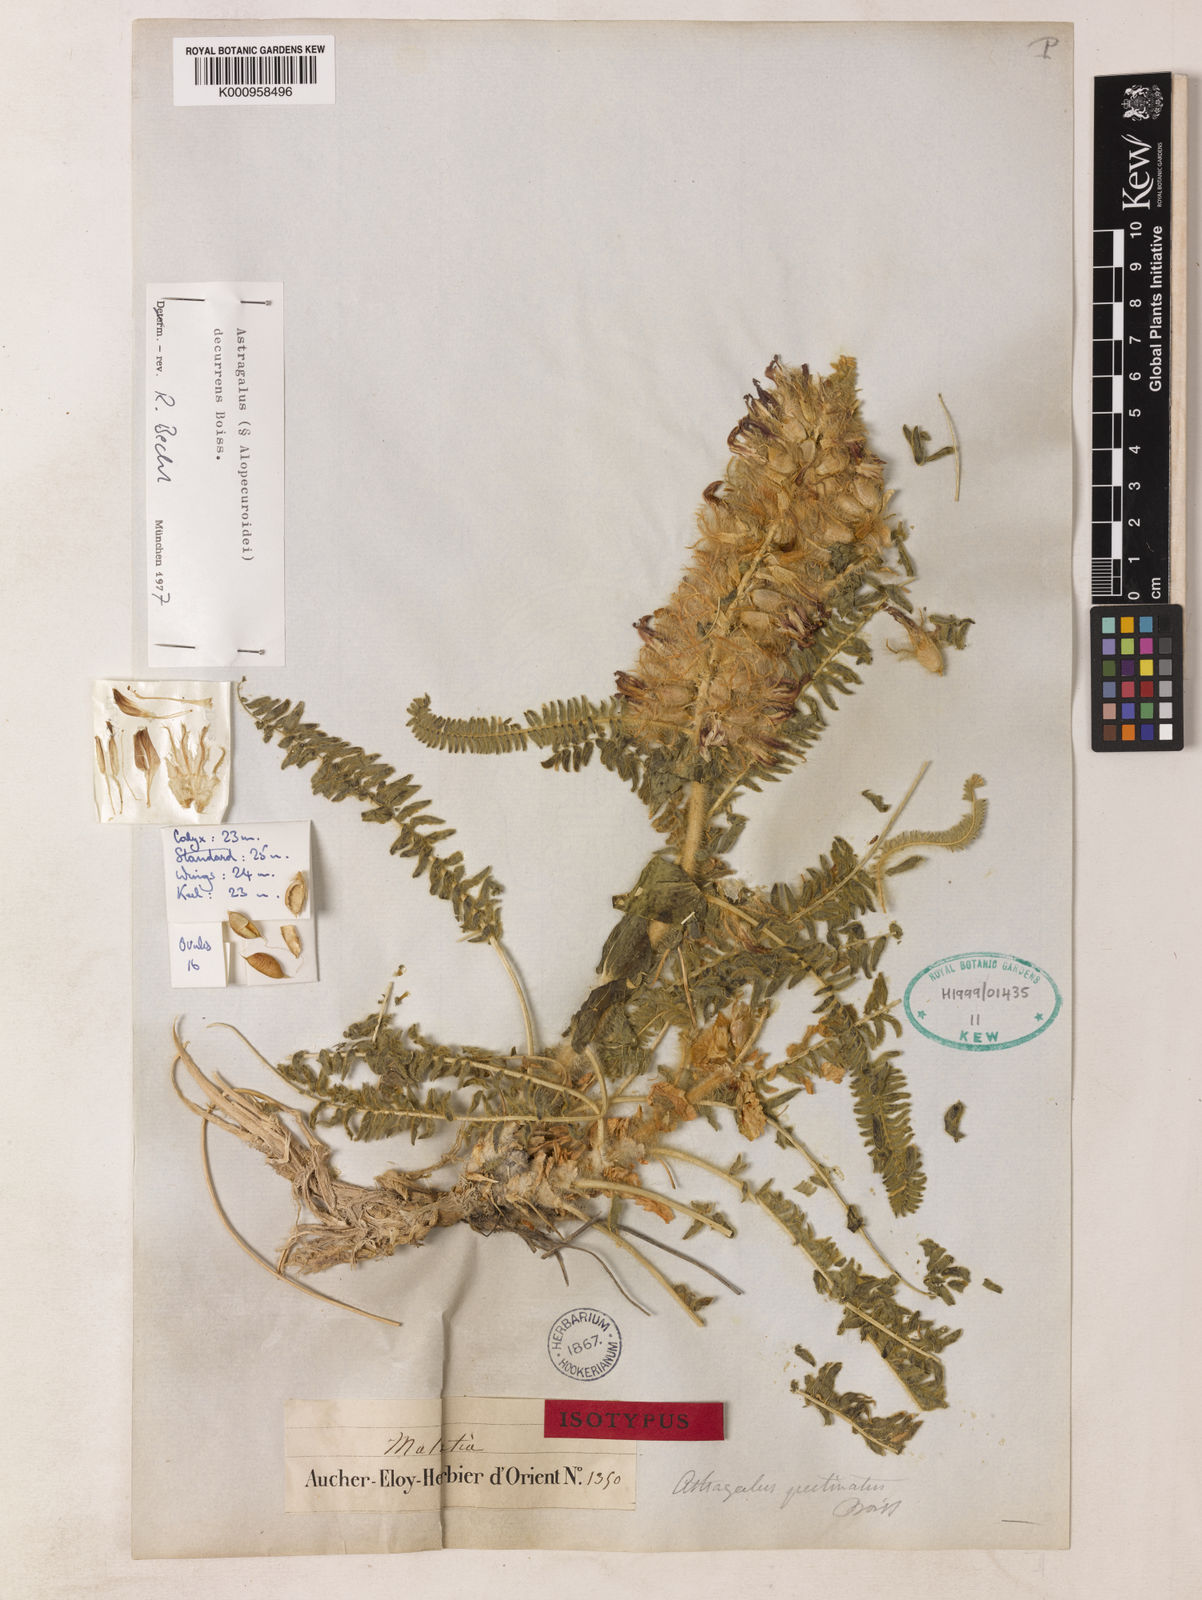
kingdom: Plantae
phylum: Tracheophyta
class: Magnoliopsida
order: Fabales
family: Fabaceae
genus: Astragalus
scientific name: Astragalus
